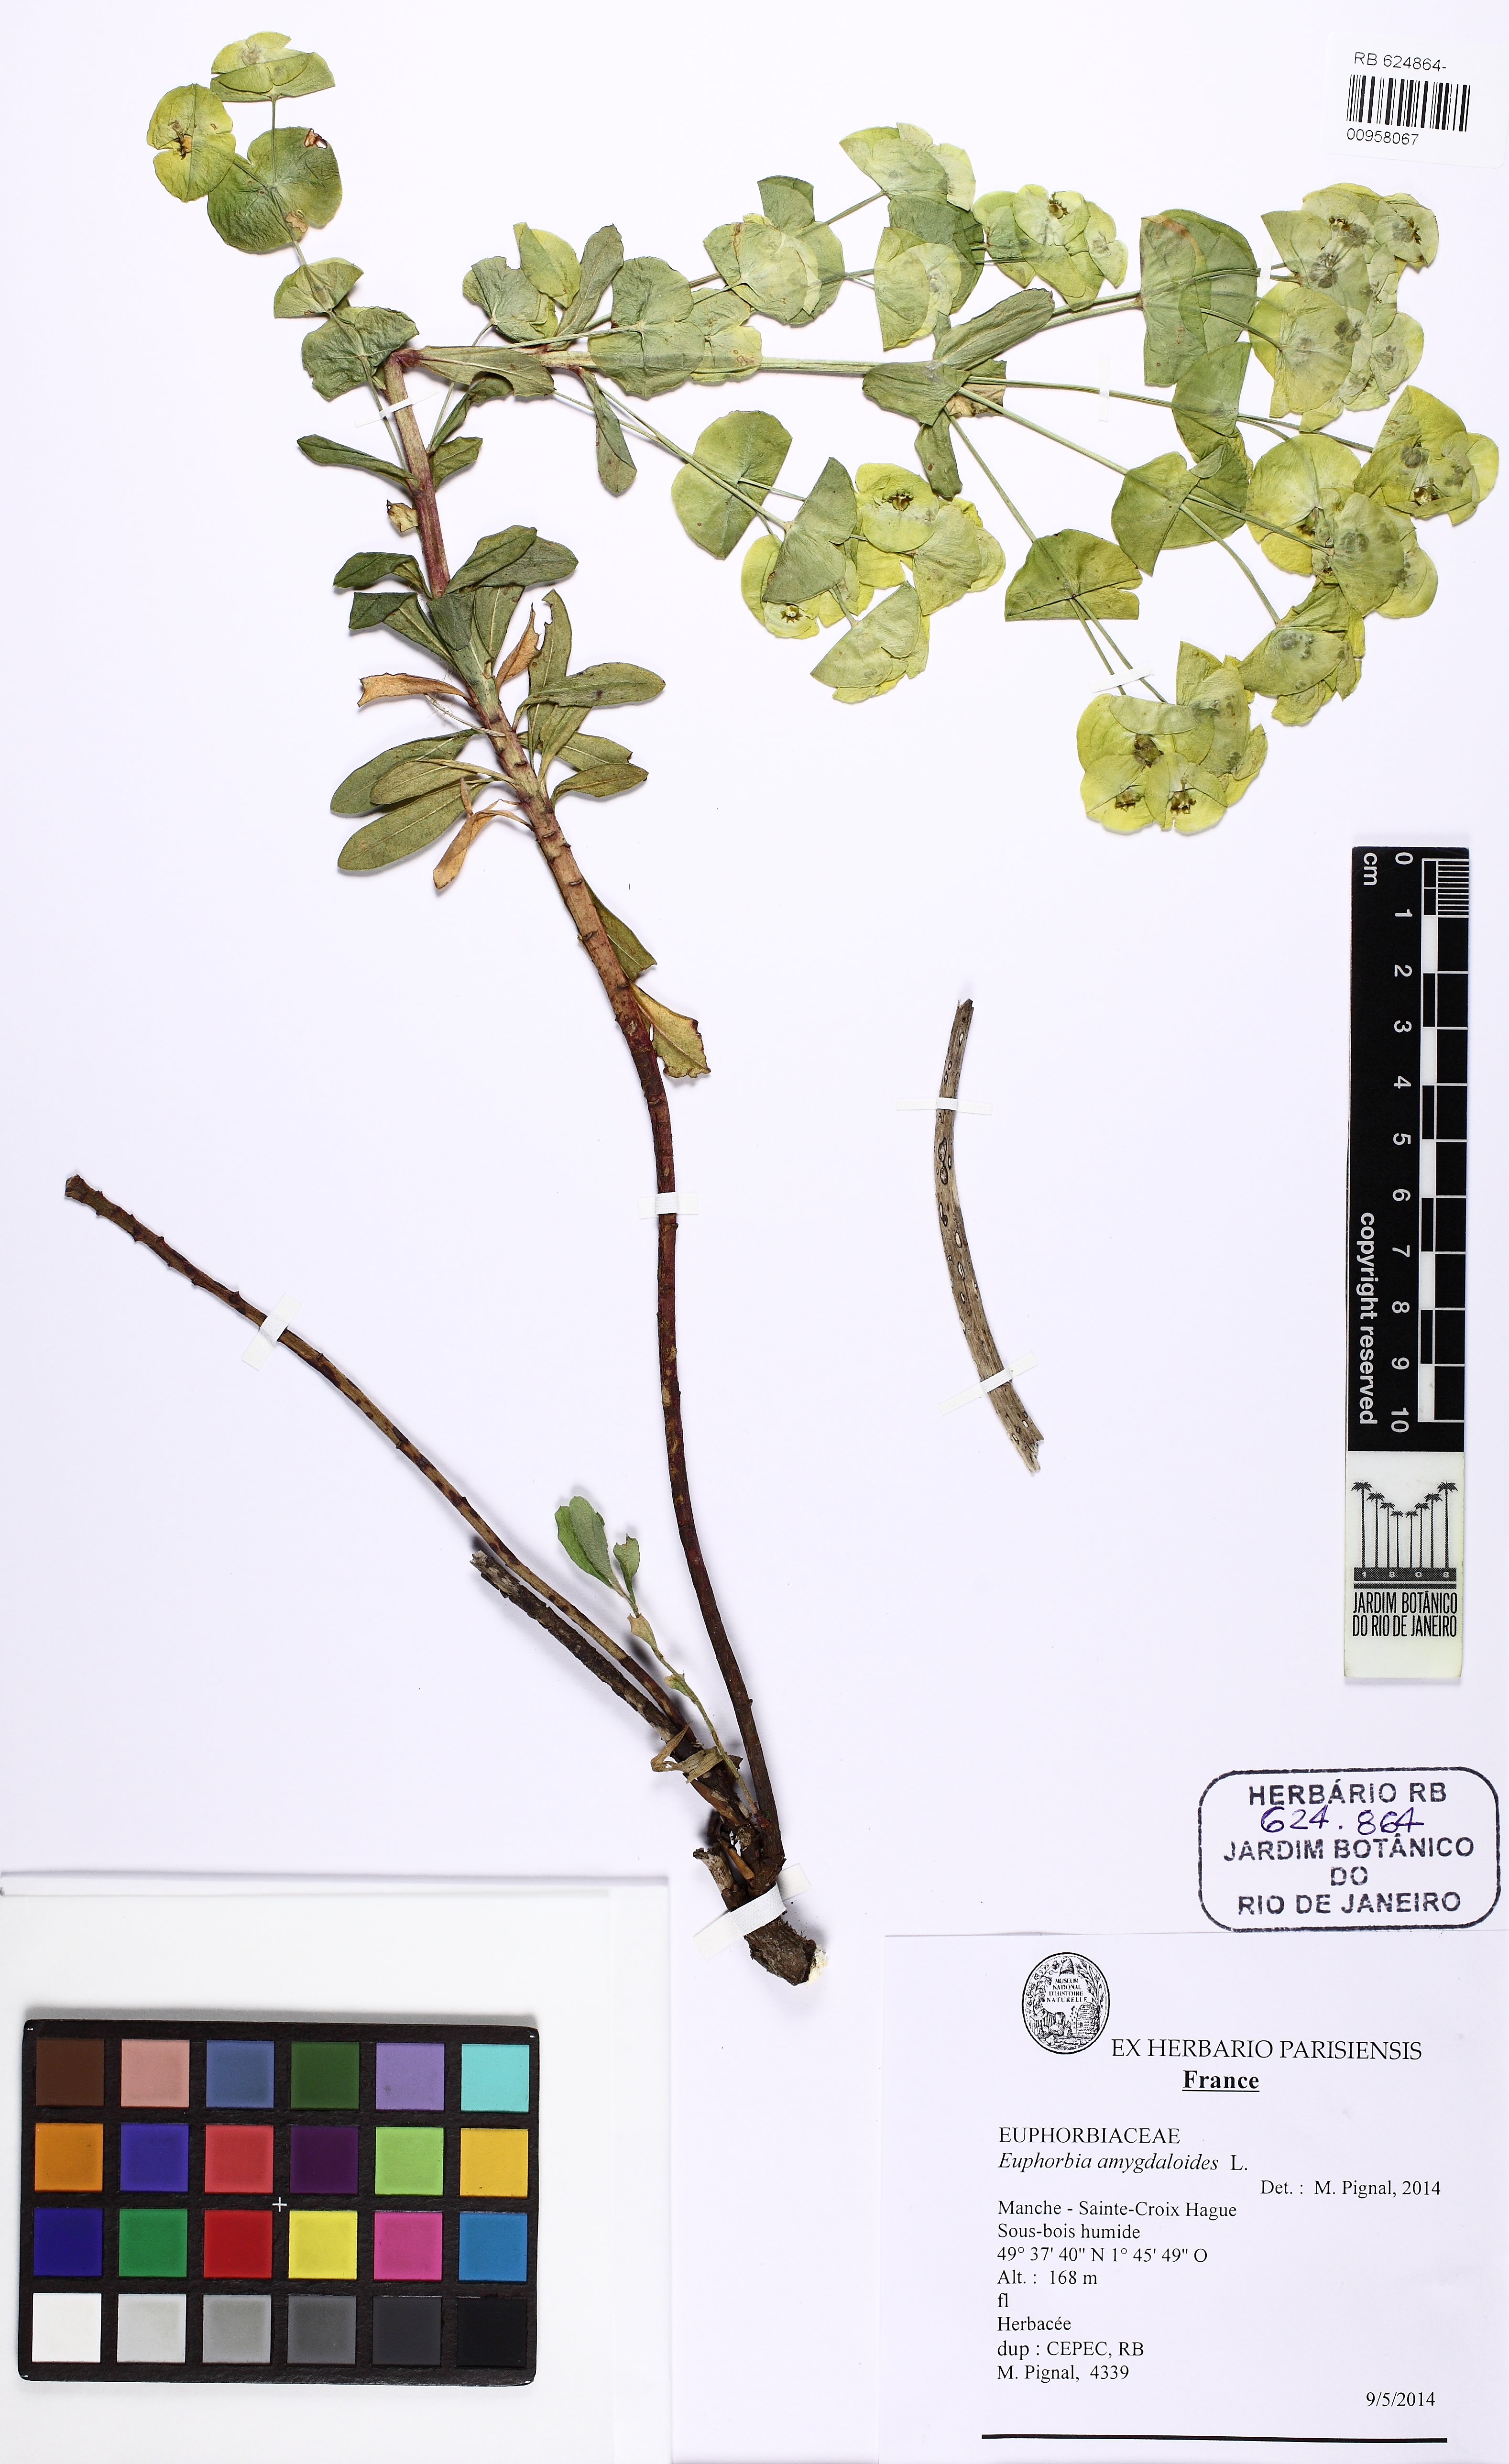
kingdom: Plantae
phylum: Tracheophyta
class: Magnoliopsida
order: Malpighiales
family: Euphorbiaceae
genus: Euphorbia
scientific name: Euphorbia amygdaloides
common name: Wood spurge
